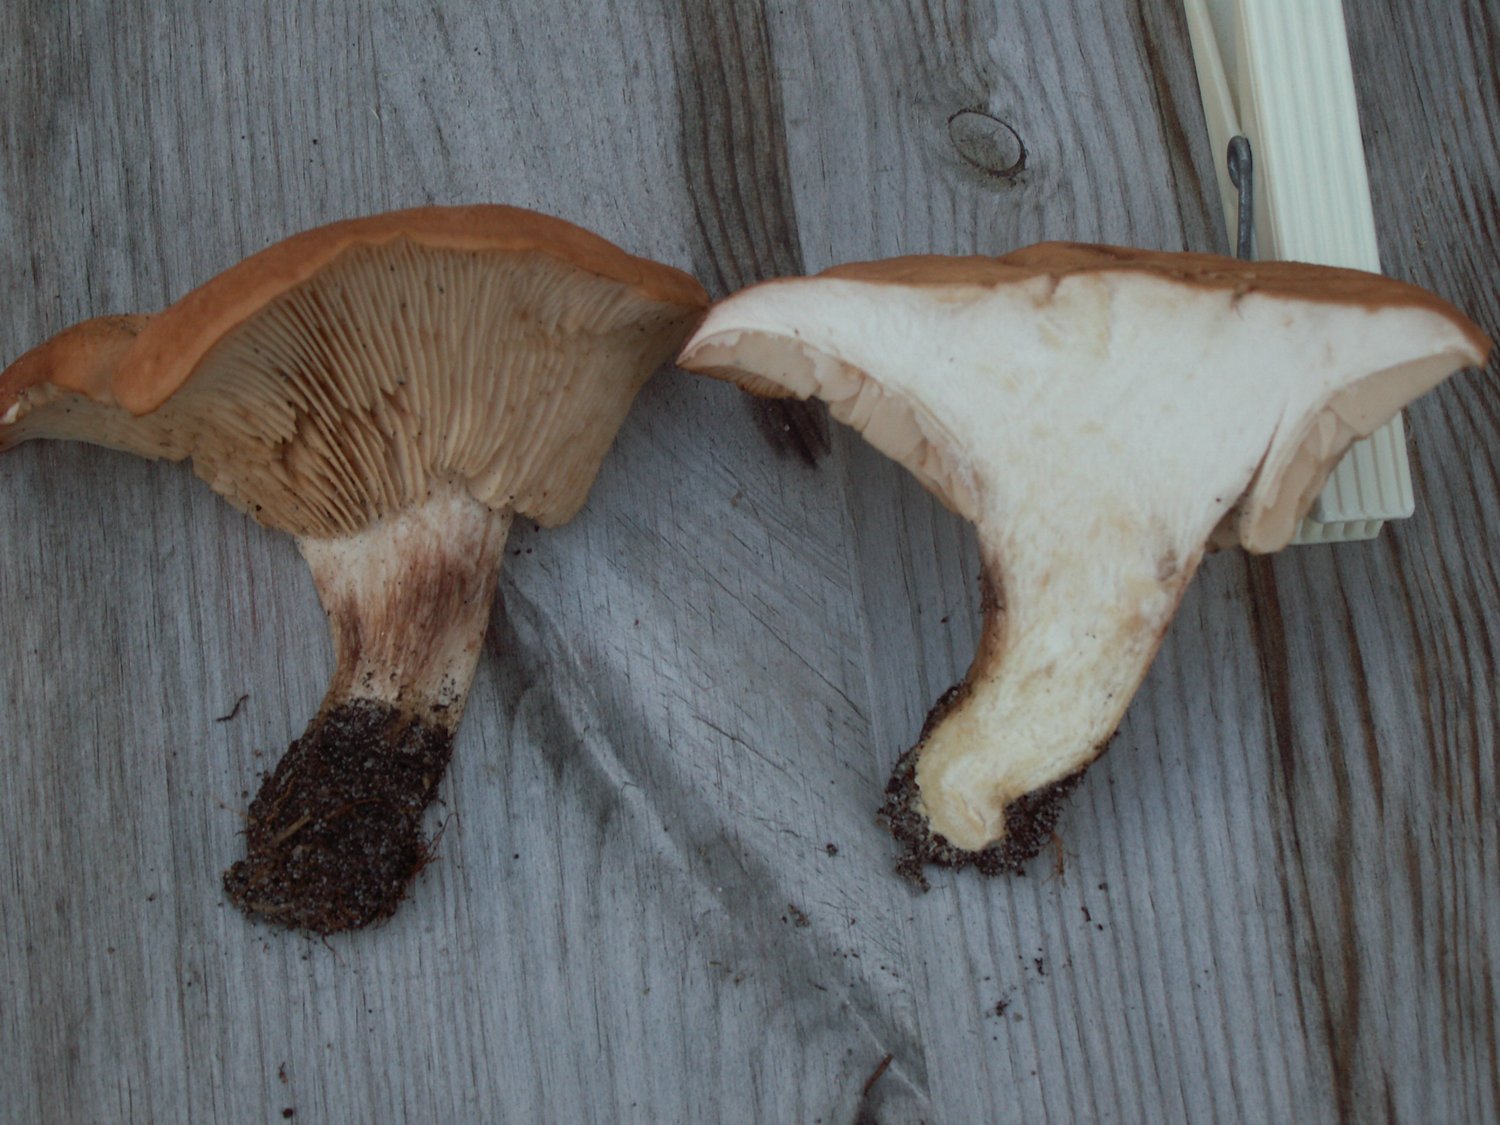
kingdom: Fungi
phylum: Basidiomycota
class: Agaricomycetes
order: Agaricales
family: Entolomataceae
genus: Clitopilus
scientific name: Clitopilus geminus
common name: kødfarvet troldhat
